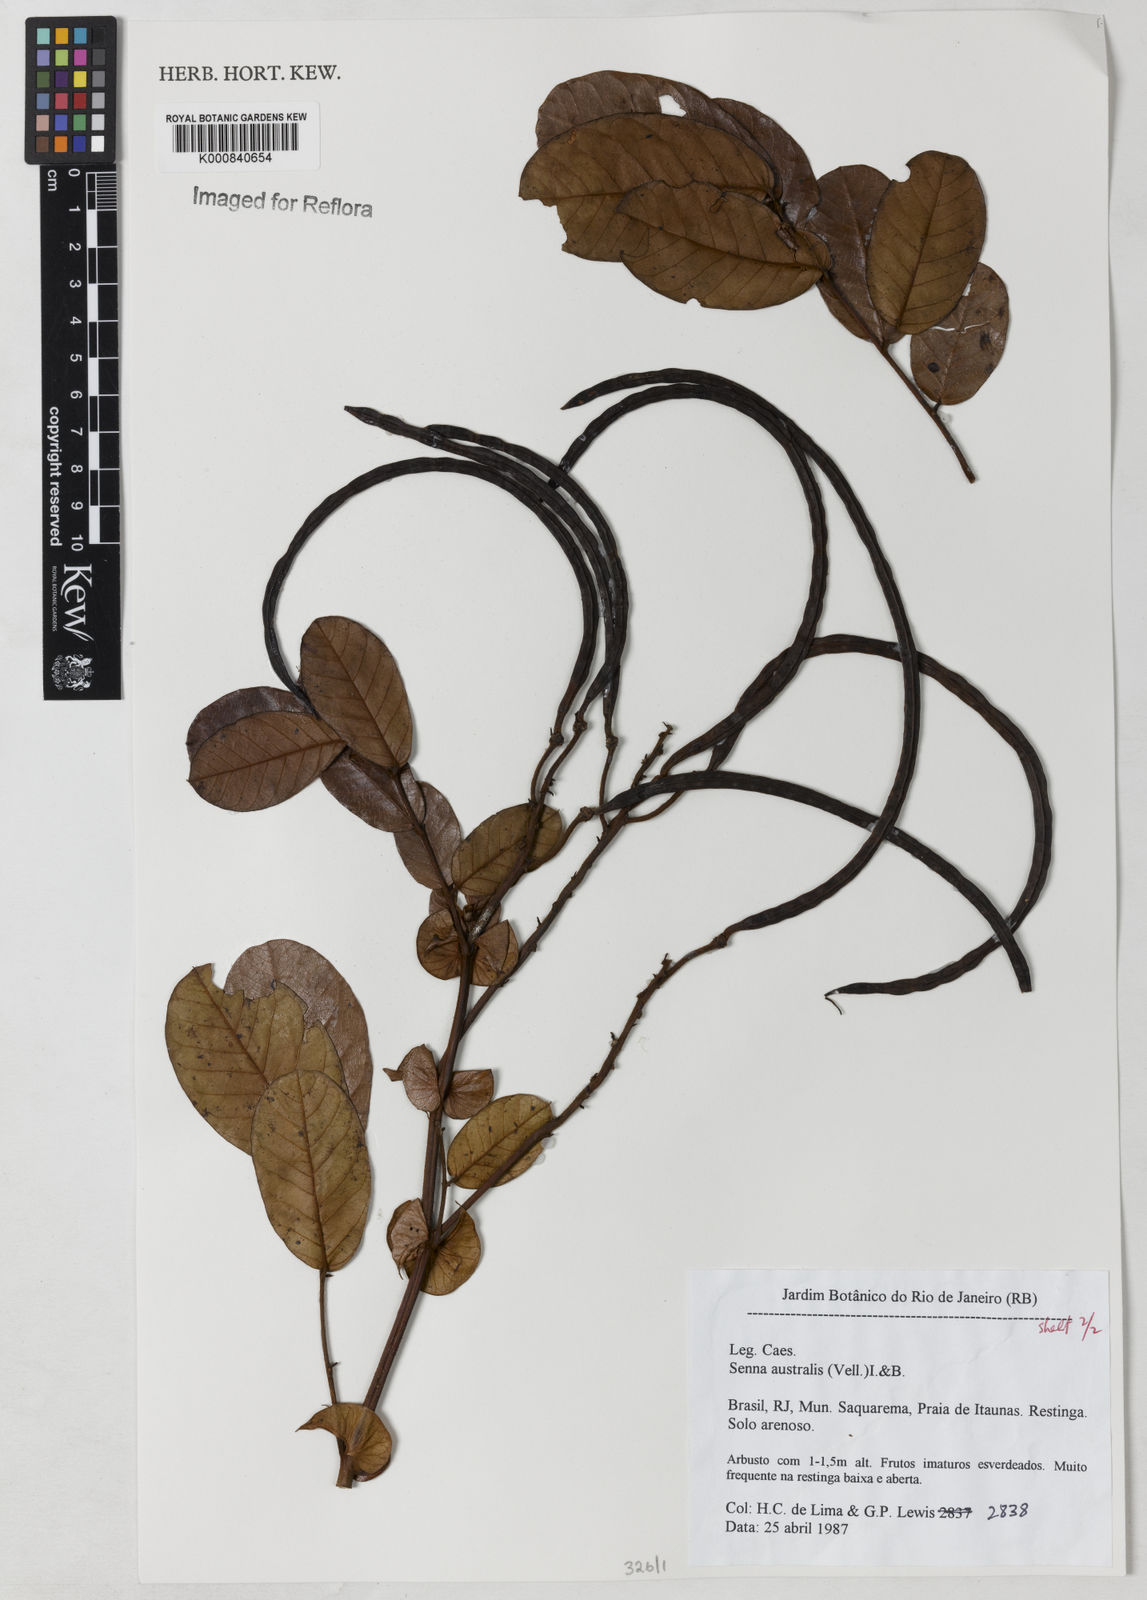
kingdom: Plantae
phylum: Tracheophyta
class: Magnoliopsida
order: Fabales
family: Fabaceae
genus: Senna
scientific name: Senna appendiculata
